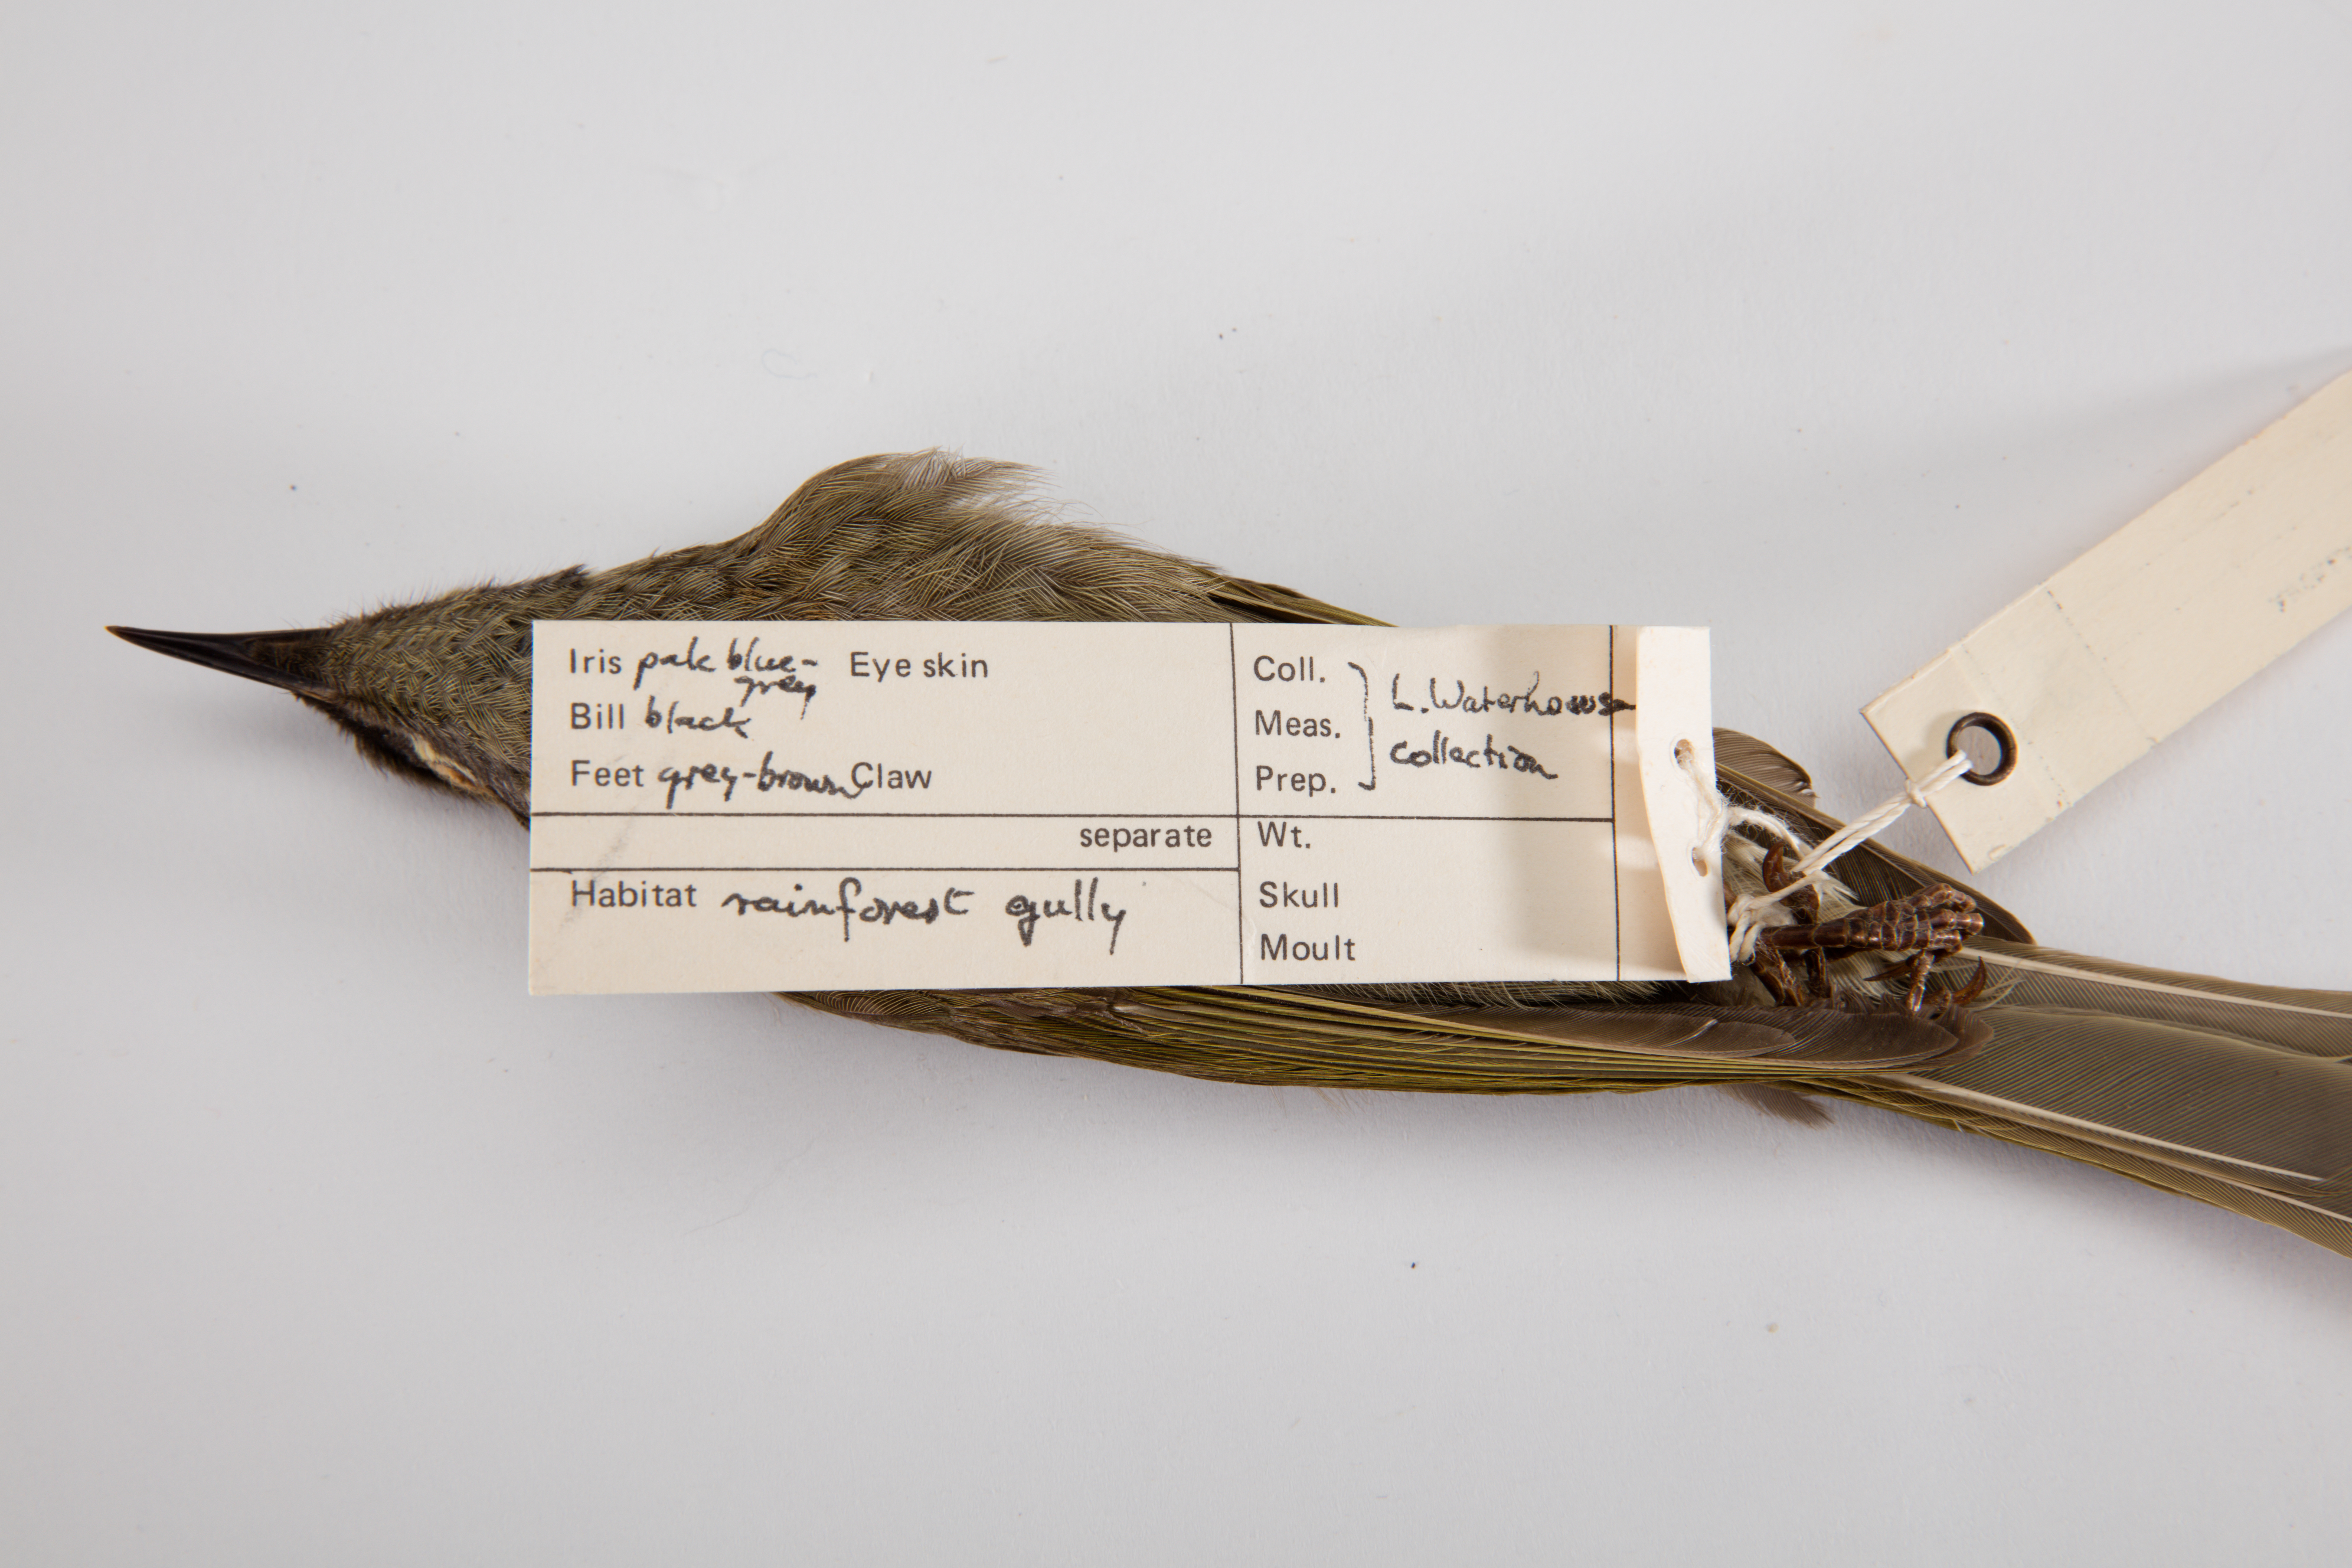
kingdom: Animalia
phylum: Chordata
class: Aves
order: Passeriformes
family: Meliphagidae
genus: Meliphaga
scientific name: Meliphaga lewinii
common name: Lewin's honeyeater
